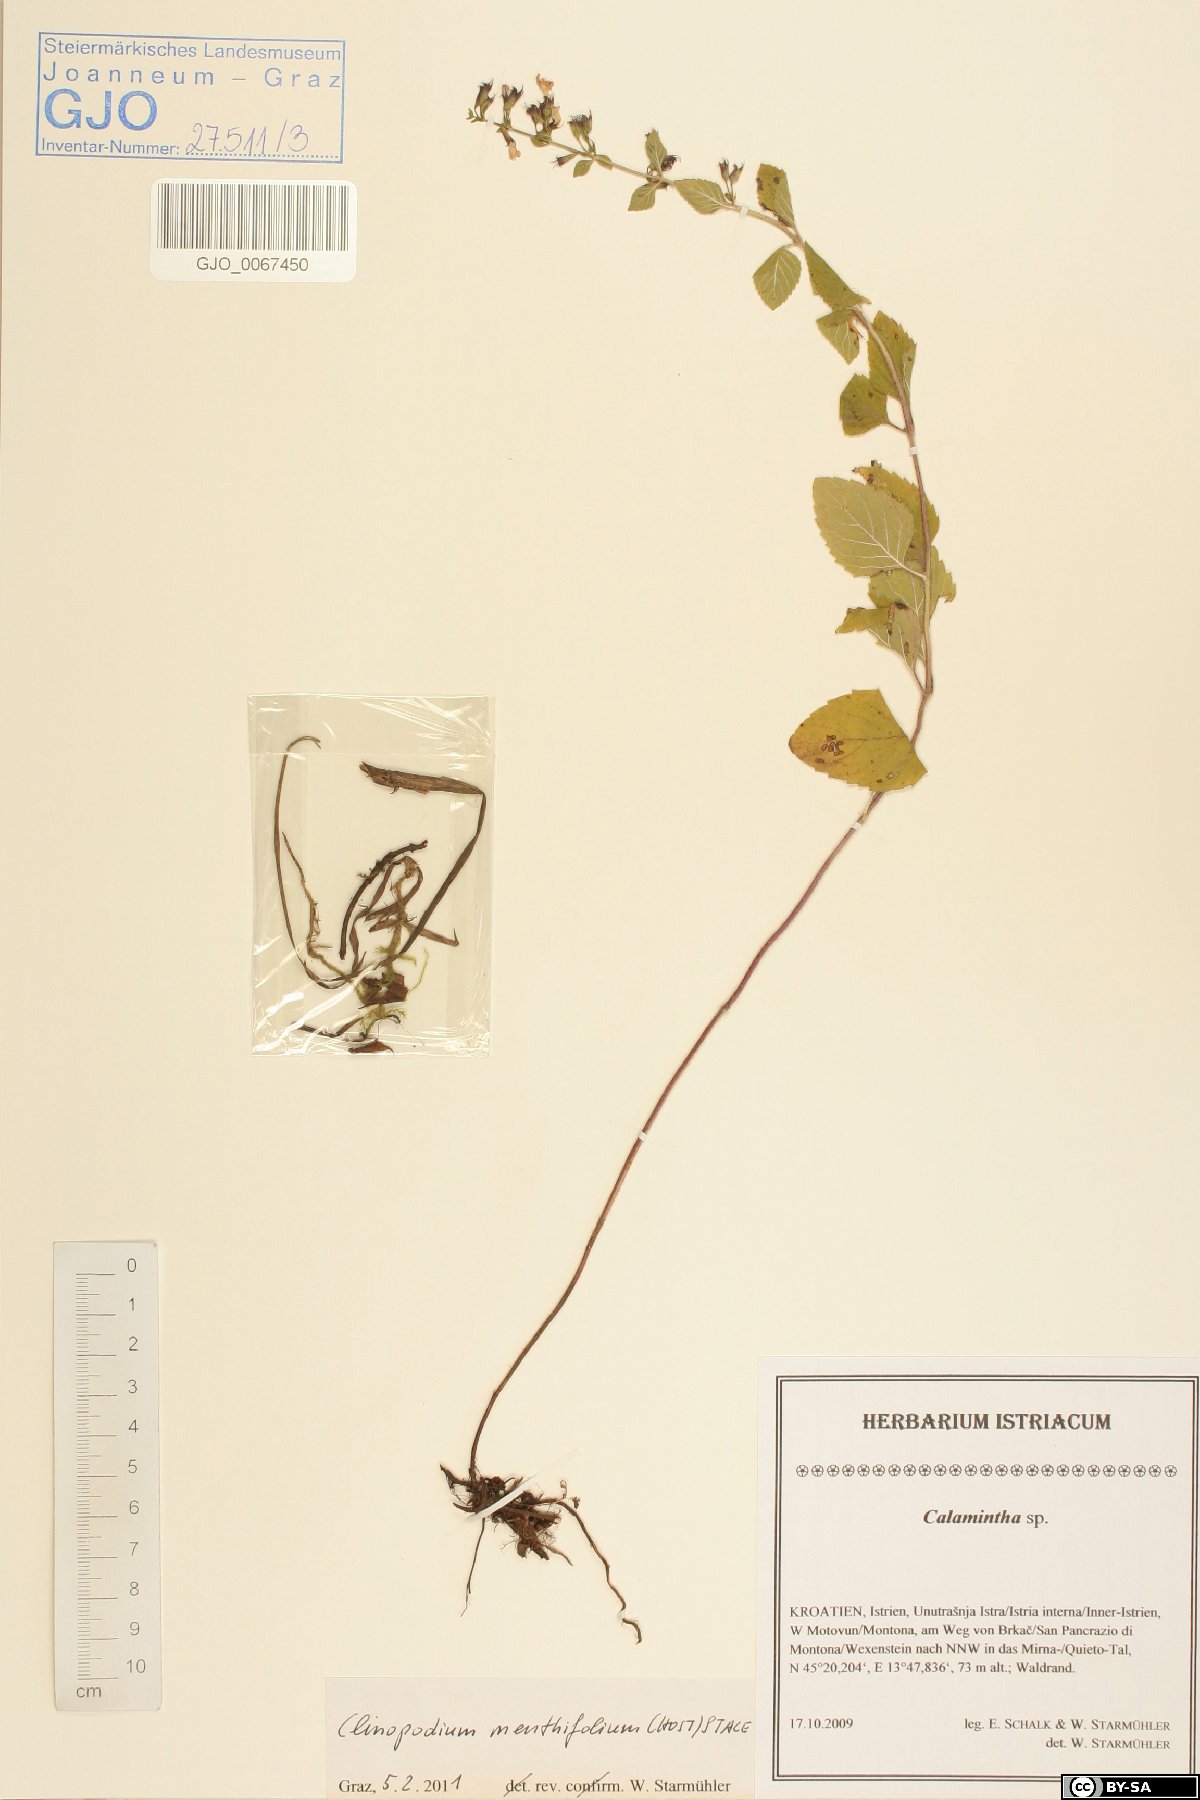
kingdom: Plantae
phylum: Tracheophyta
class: Magnoliopsida
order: Lamiales
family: Lamiaceae
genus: Clinopodium
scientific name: Clinopodium menthifolium
